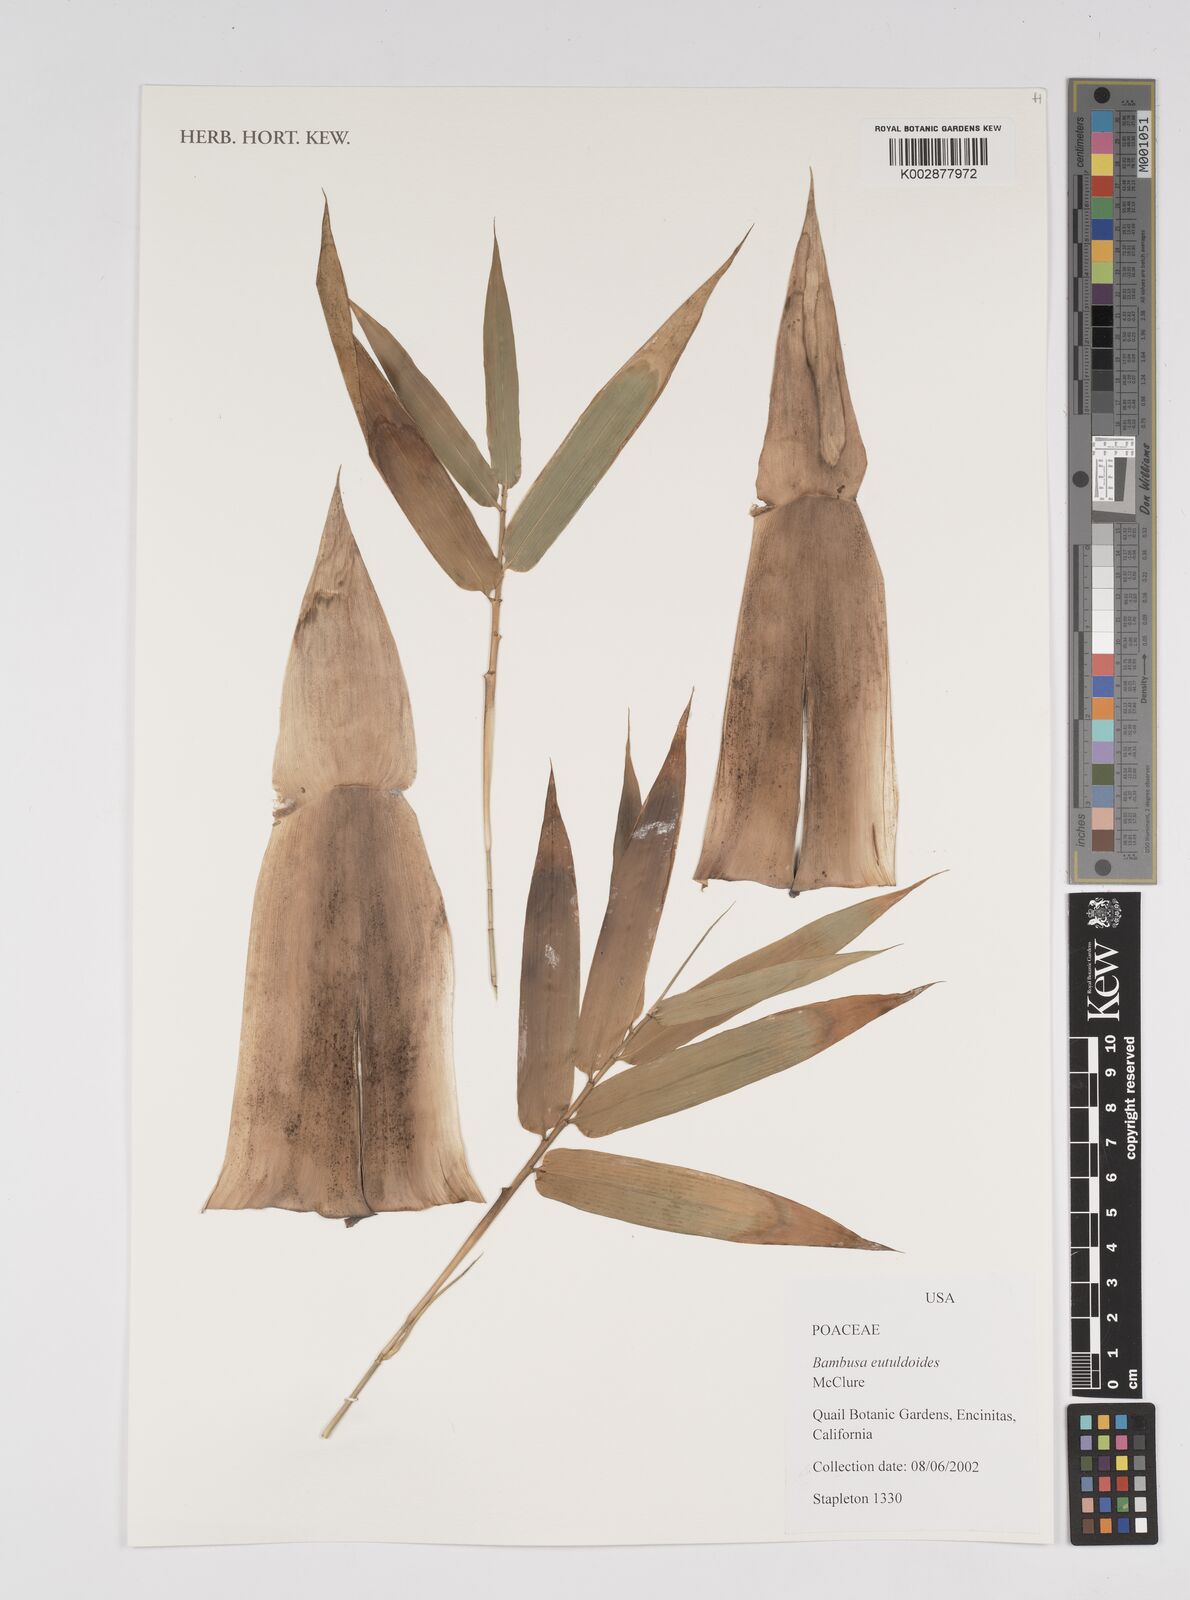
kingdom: Plantae
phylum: Tracheophyta
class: Liliopsida
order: Poales
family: Poaceae
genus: Bambusa
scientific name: Bambusa eutuldoides
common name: Dai ngan bamboo
